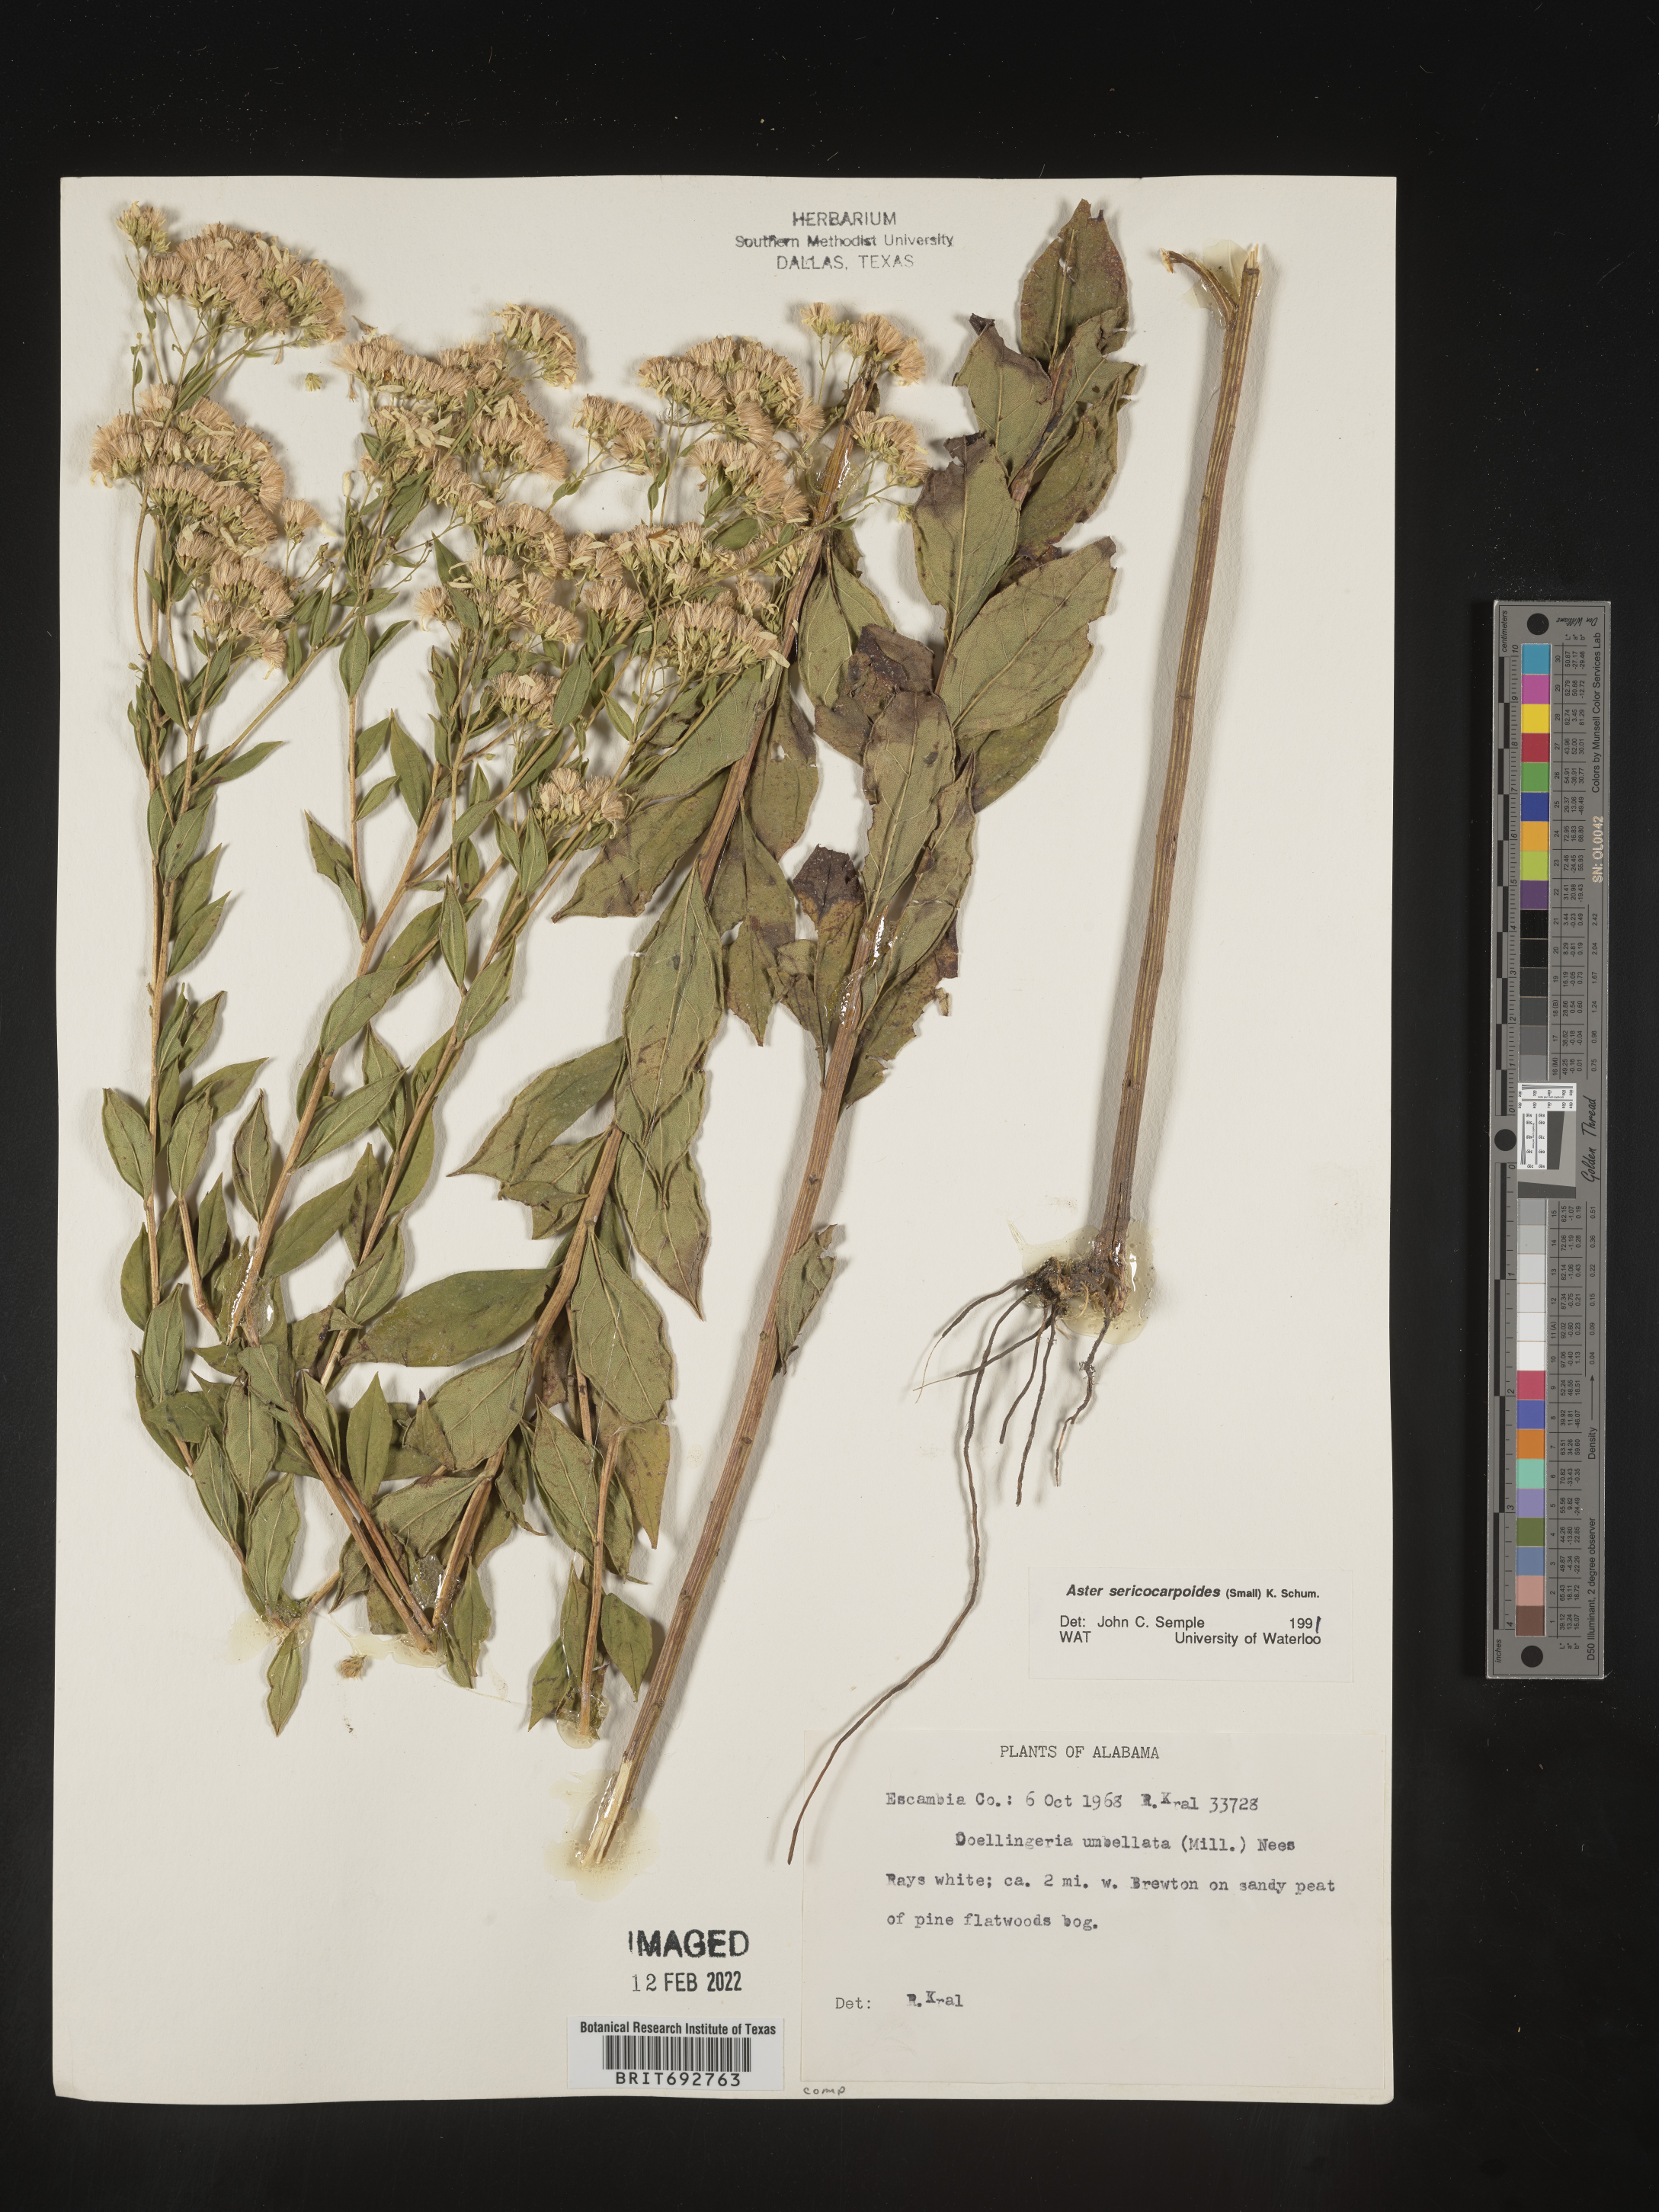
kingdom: Plantae
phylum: Tracheophyta
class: Magnoliopsida
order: Asterales
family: Asteraceae
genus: Doellingeria
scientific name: Doellingeria sericocarpoides
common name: Southern tall flat-top aster
